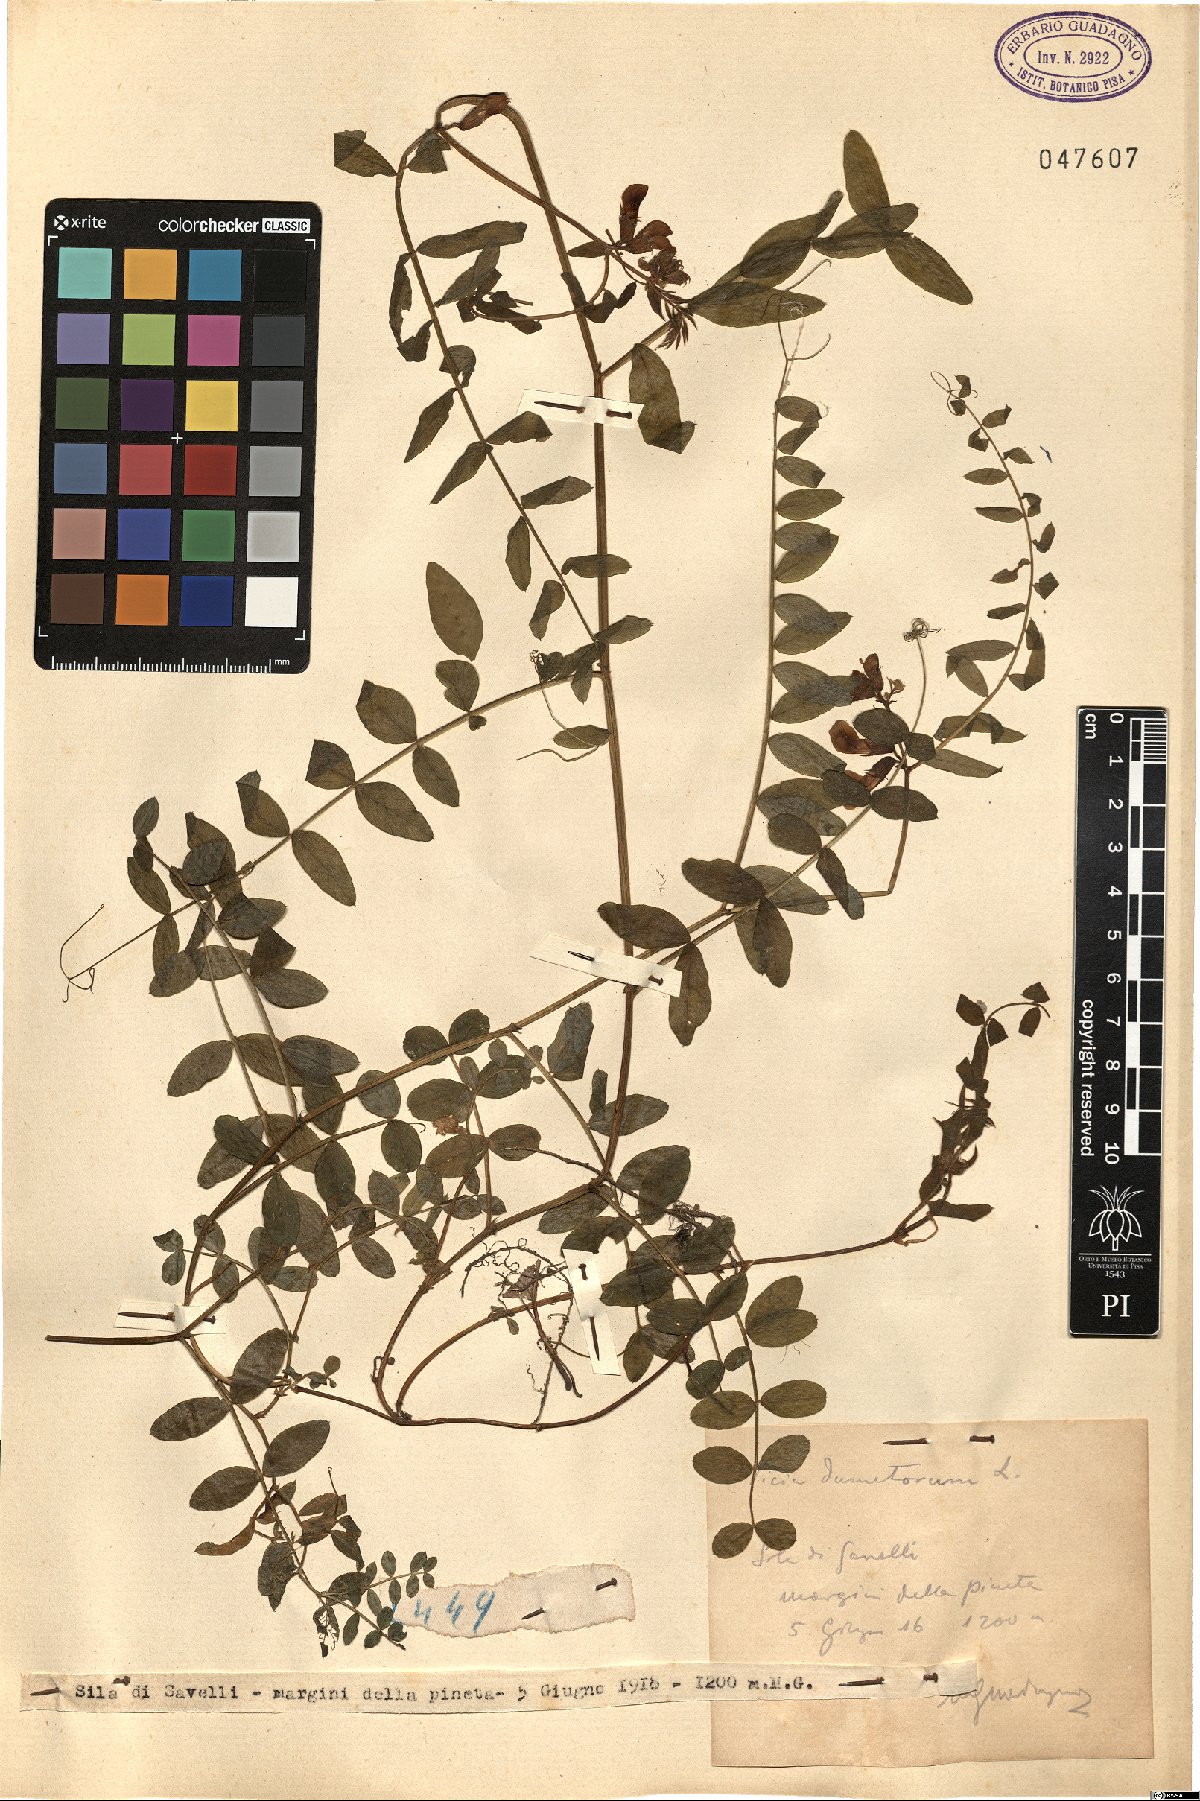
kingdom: Plantae
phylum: Tracheophyta
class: Magnoliopsida
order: Fabales
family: Fabaceae
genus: Vicia
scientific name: Vicia dumetorum
